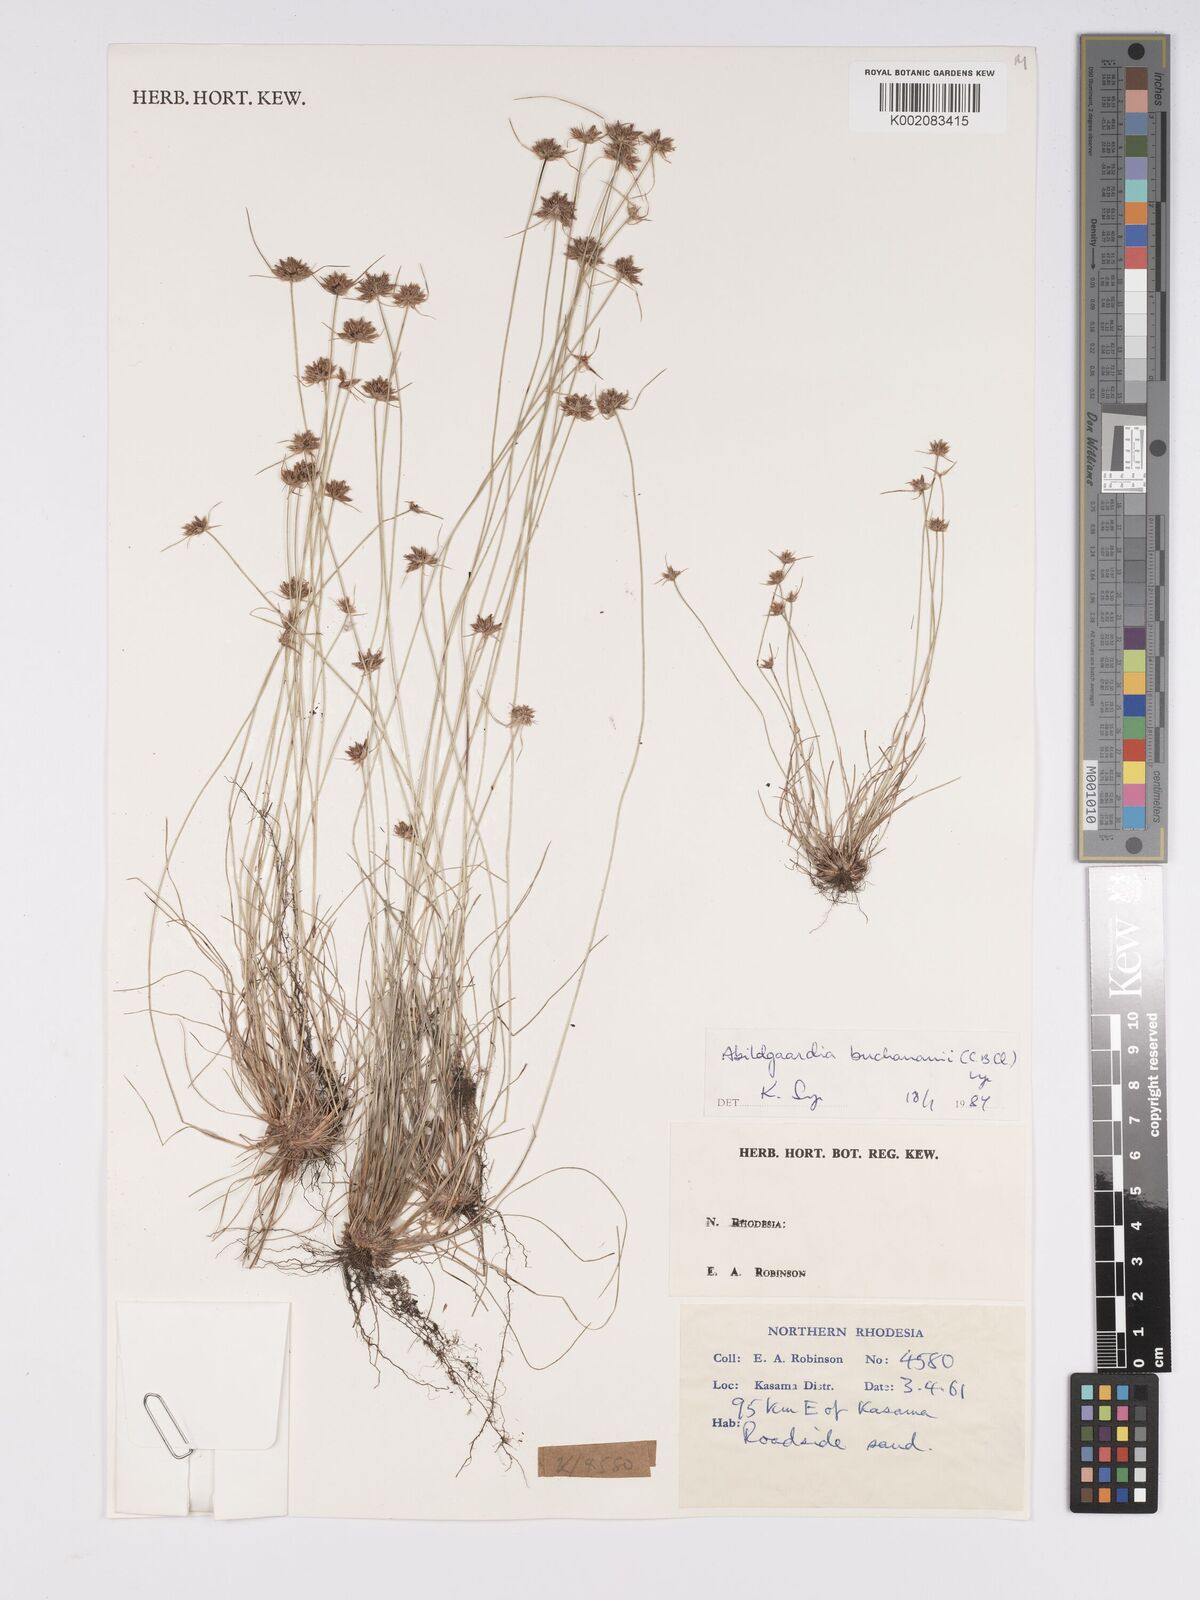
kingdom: Plantae
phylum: Tracheophyta
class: Liliopsida
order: Poales
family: Cyperaceae
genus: Bulbostylis
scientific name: Bulbostylis buchananii
